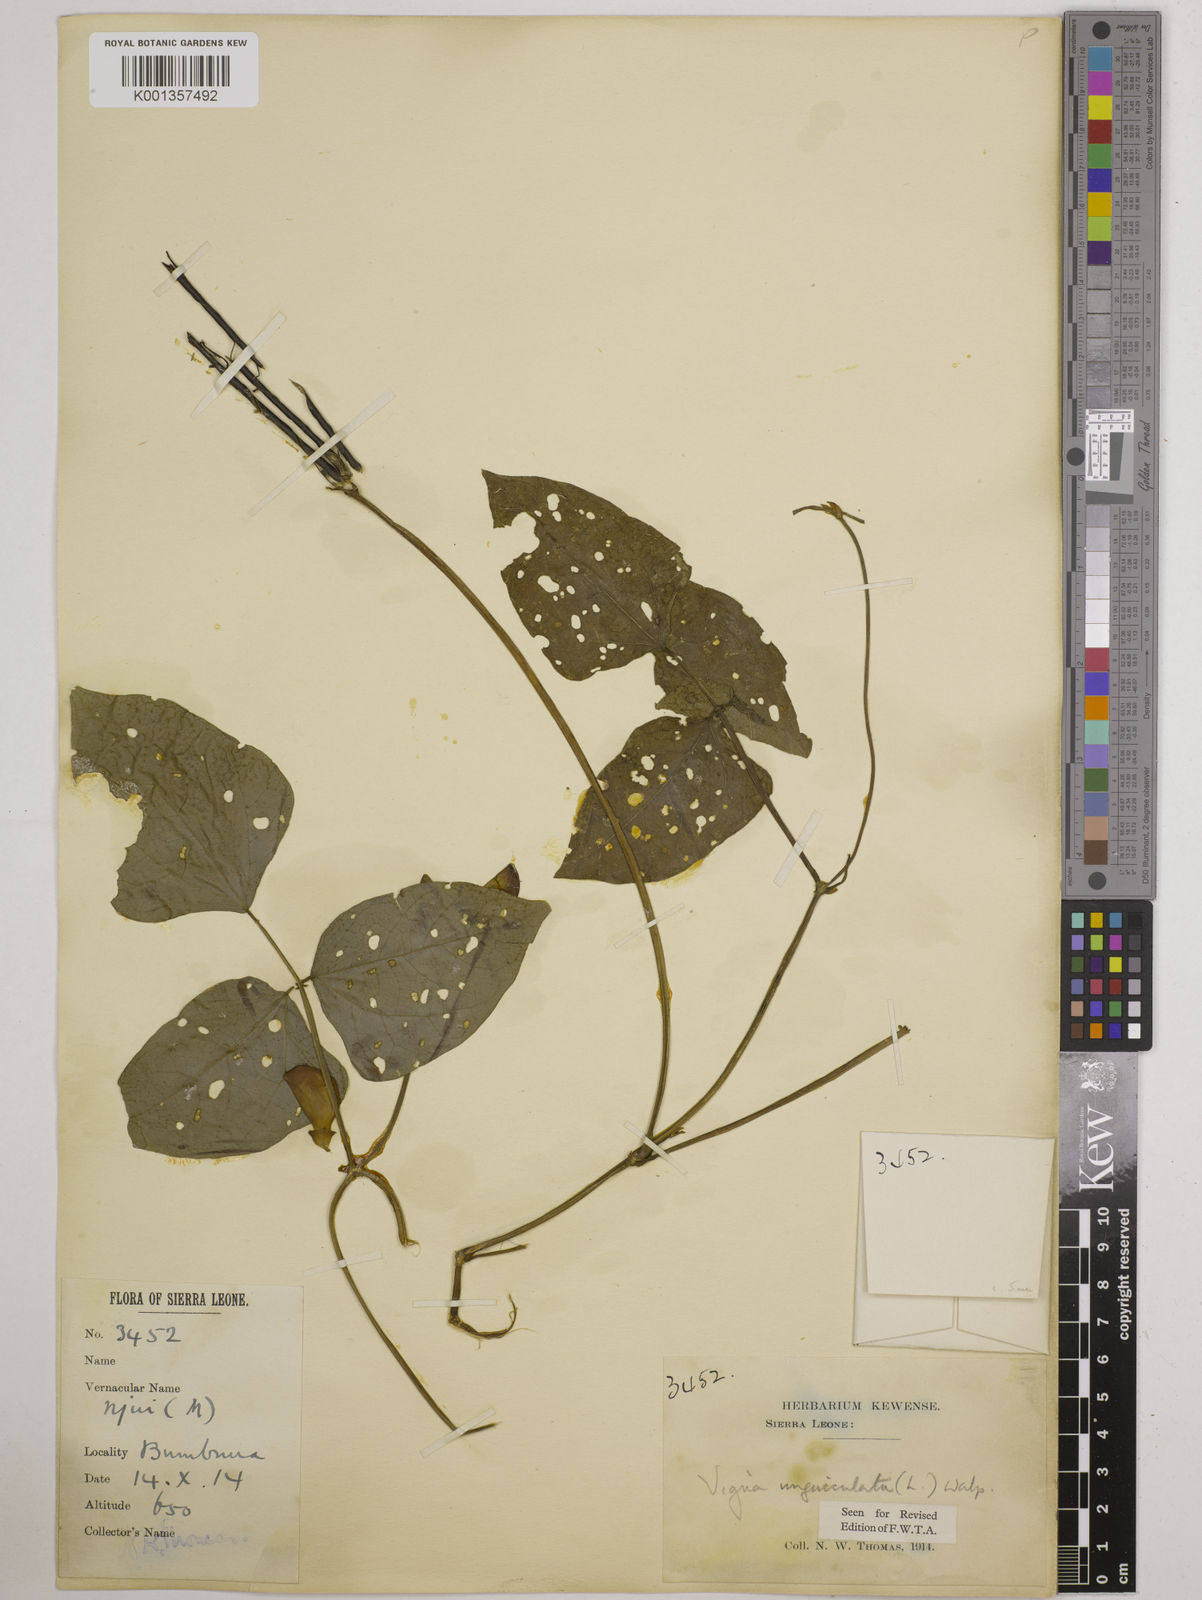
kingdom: Plantae
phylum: Tracheophyta
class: Magnoliopsida
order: Fabales
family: Fabaceae
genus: Vigna
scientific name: Vigna
